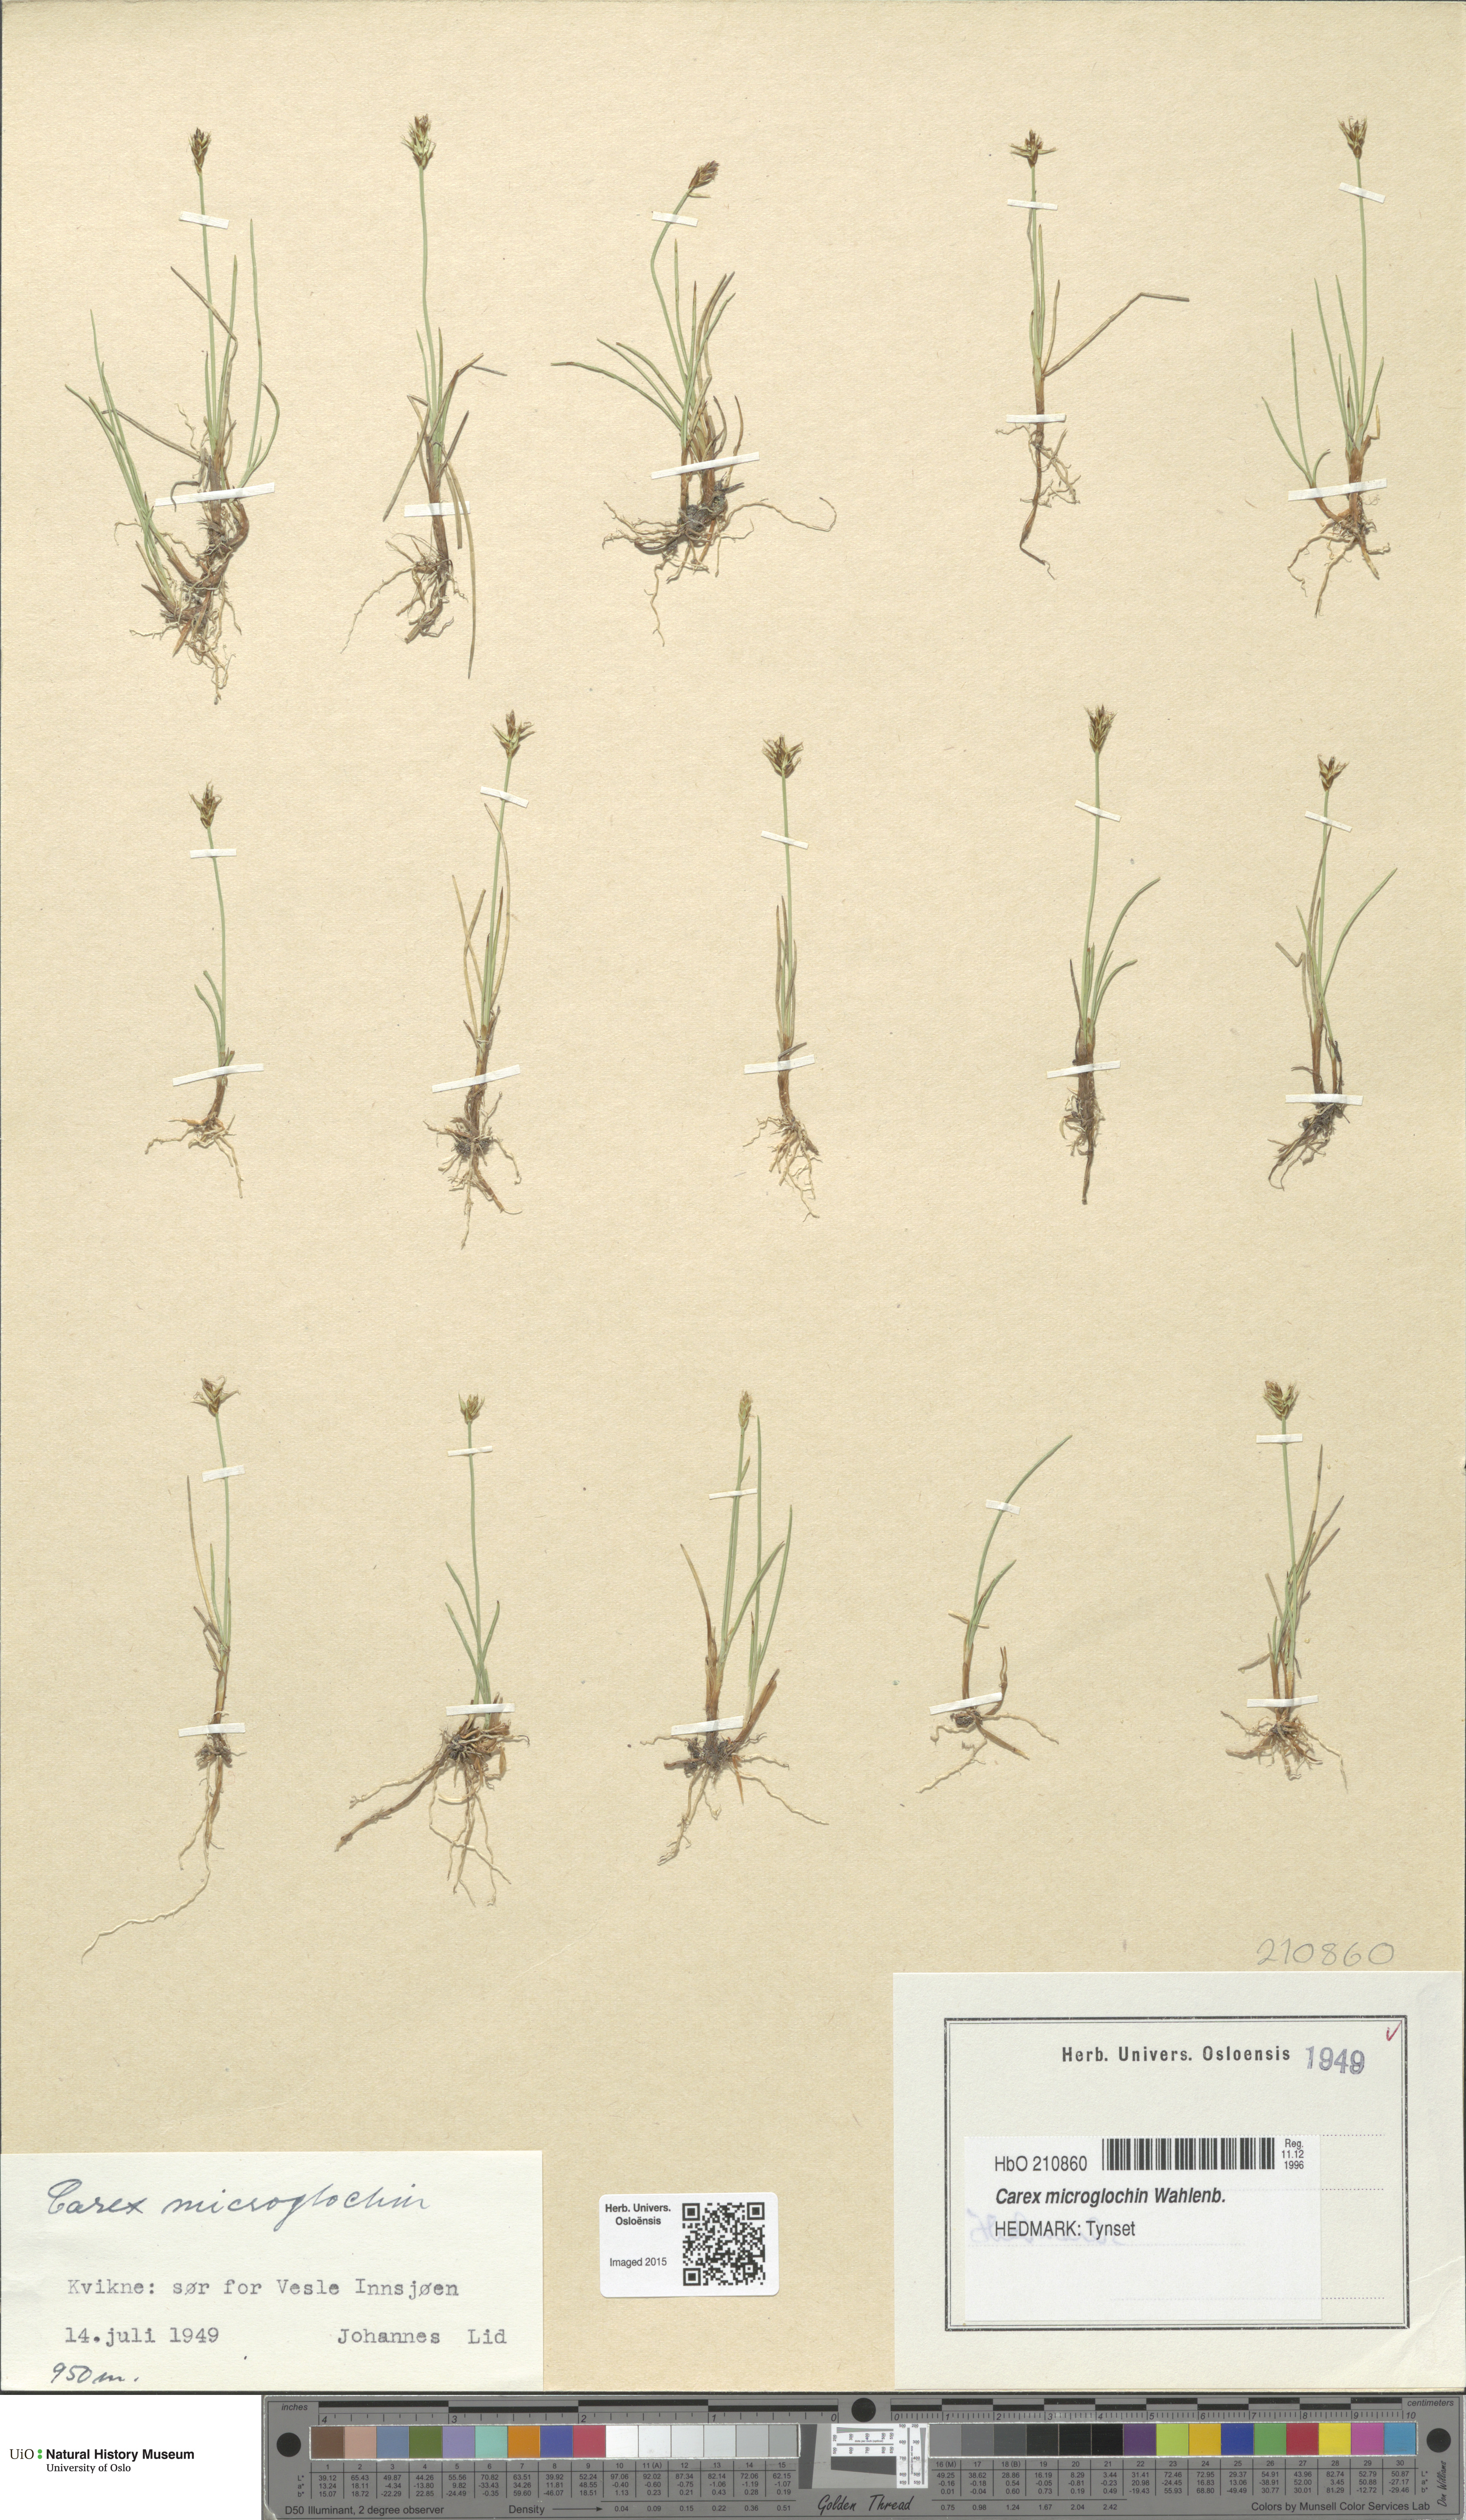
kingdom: Plantae
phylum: Tracheophyta
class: Liliopsida
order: Poales
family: Cyperaceae
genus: Carex
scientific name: Carex microglochin
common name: Bristle sedge
